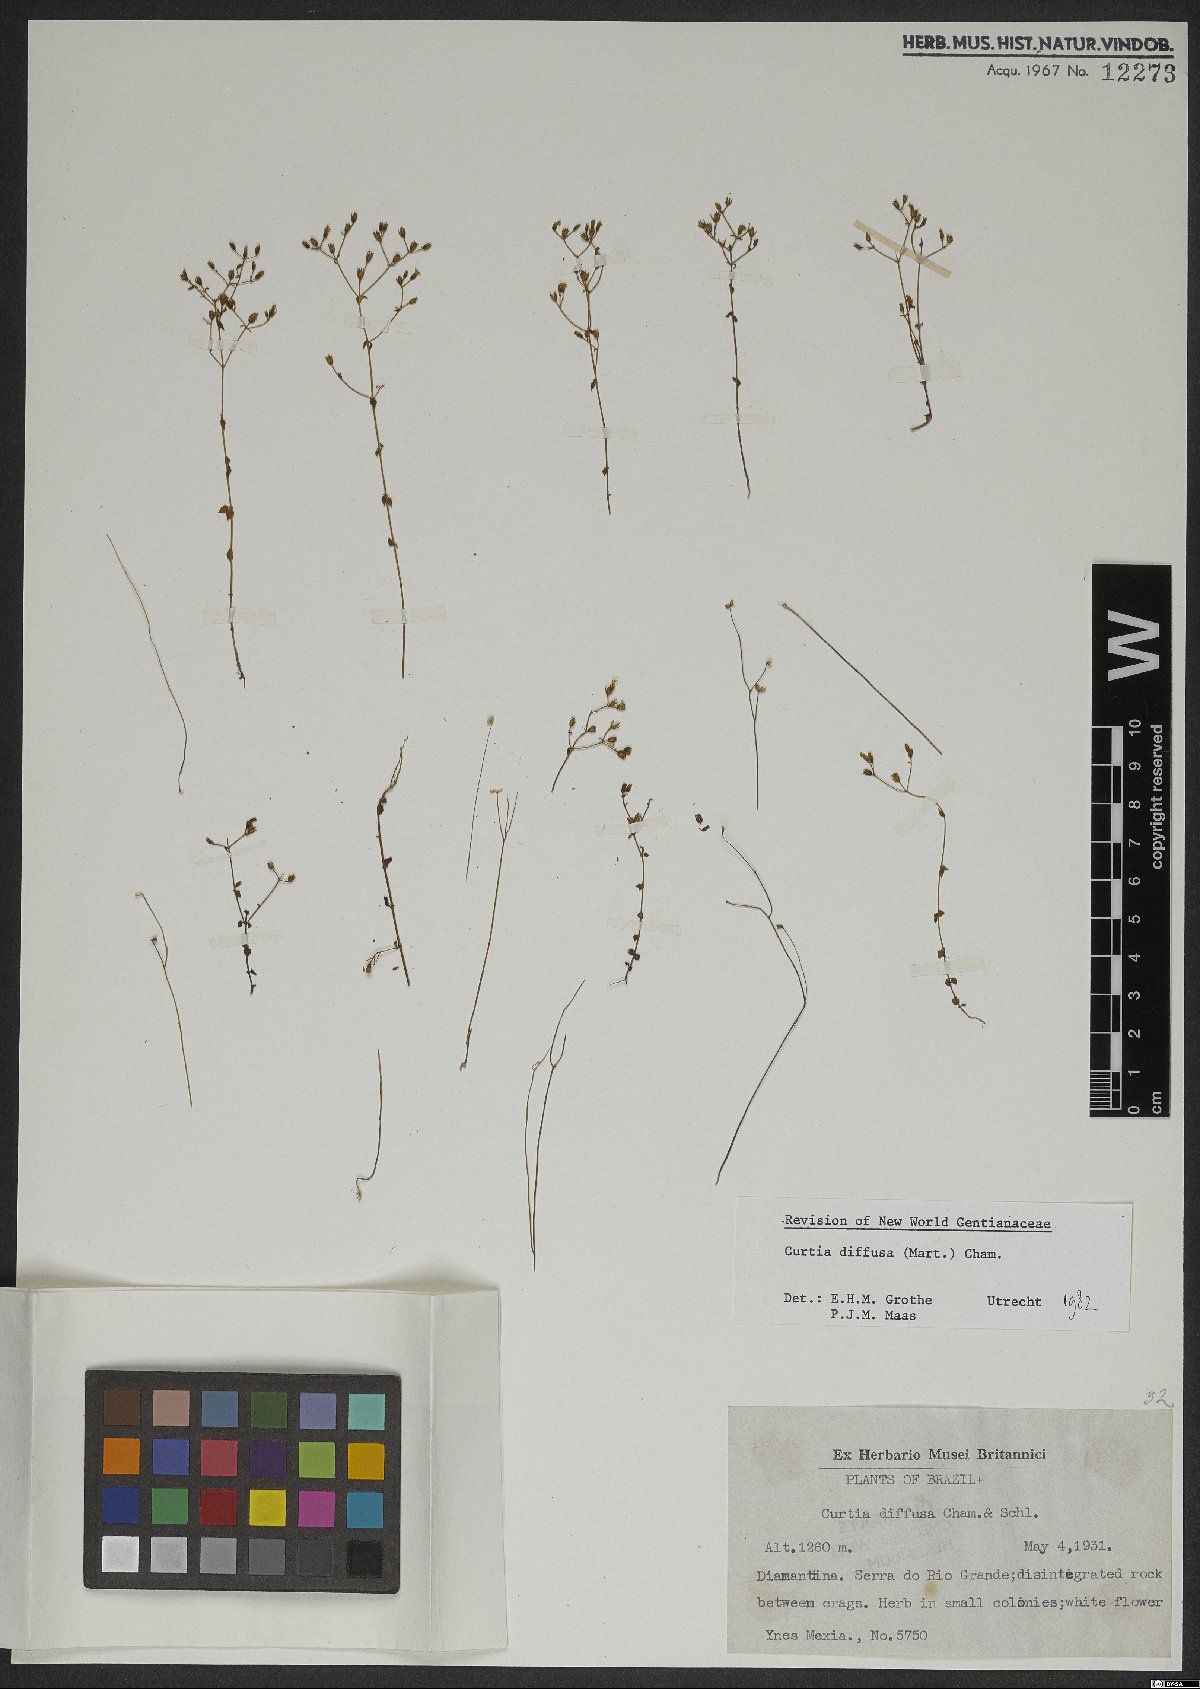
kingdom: Plantae
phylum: Tracheophyta
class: Magnoliopsida
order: Gentianales
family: Gentianaceae
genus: Curtia
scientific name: Curtia diffusa
